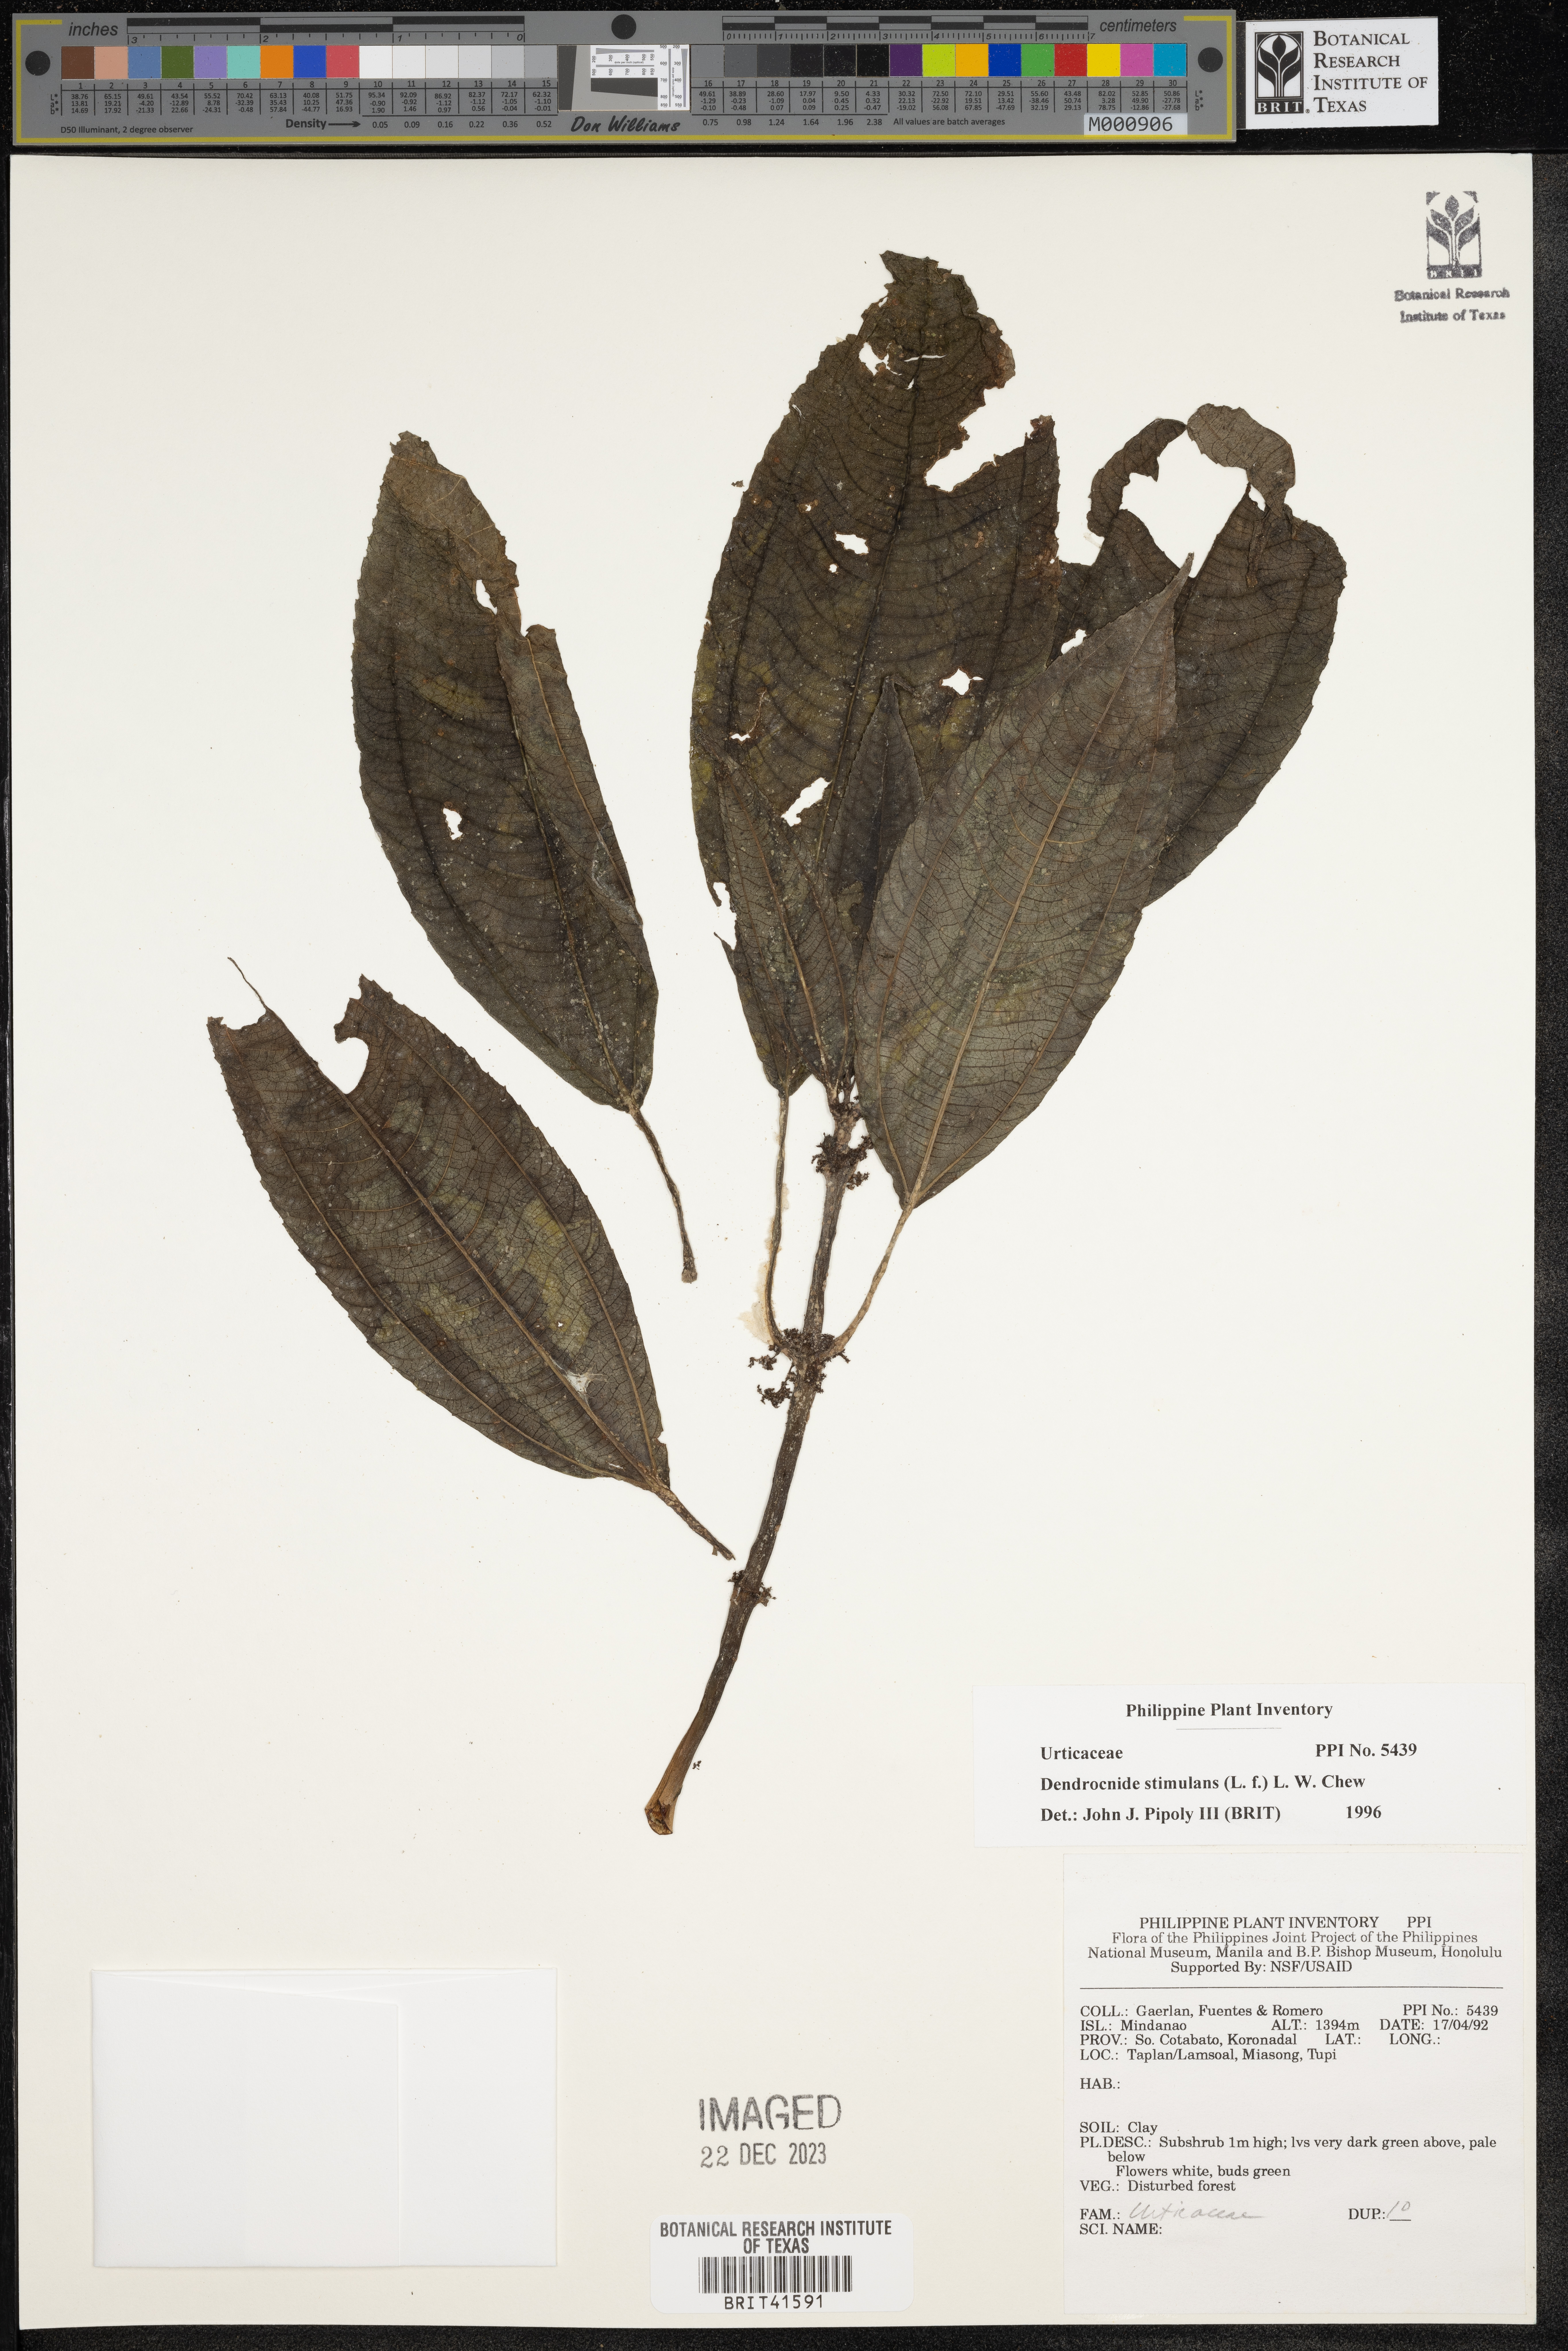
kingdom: Plantae
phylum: Tracheophyta
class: Magnoliopsida
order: Rosales
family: Urticaceae
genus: Dendrocnide
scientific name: Dendrocnide stimulans
